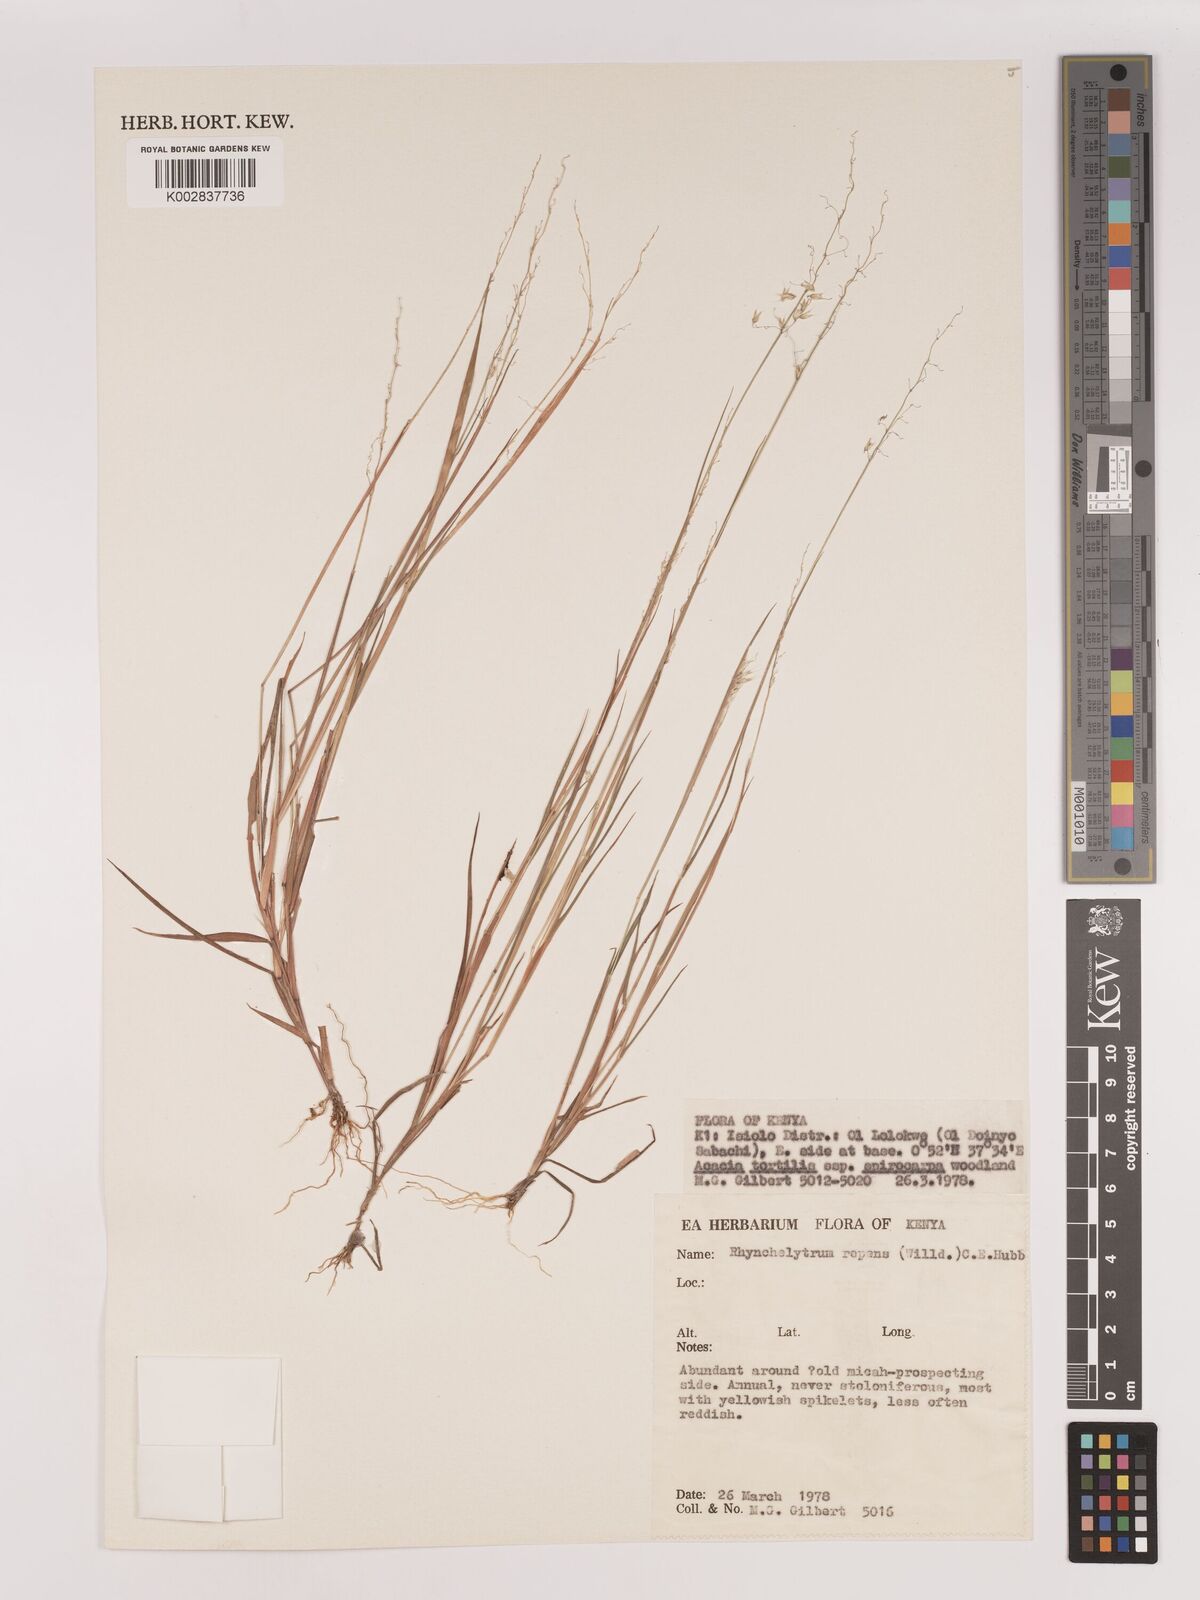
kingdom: Plantae
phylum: Tracheophyta
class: Liliopsida
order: Poales
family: Poaceae
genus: Melinis
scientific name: Melinis repens
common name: Rose natal grass
